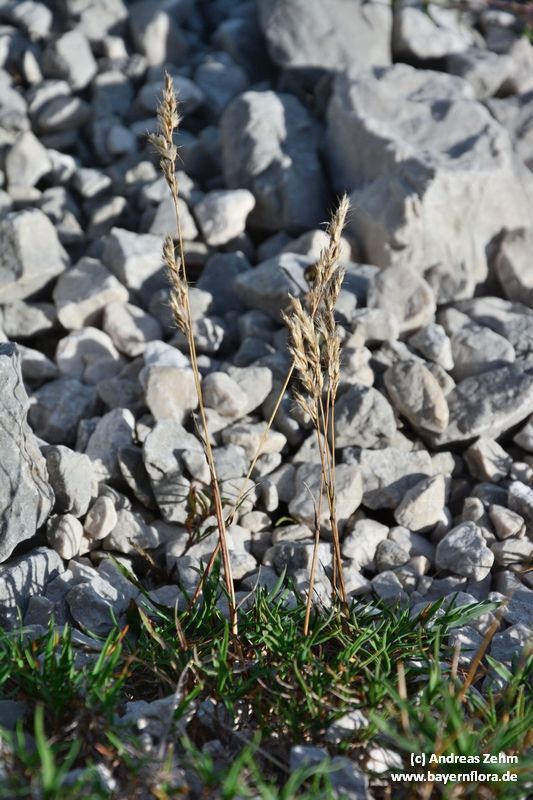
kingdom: Plantae
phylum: Tracheophyta
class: Liliopsida
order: Poales
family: Poaceae
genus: Acrospelion
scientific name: Acrospelion distichophyllum
